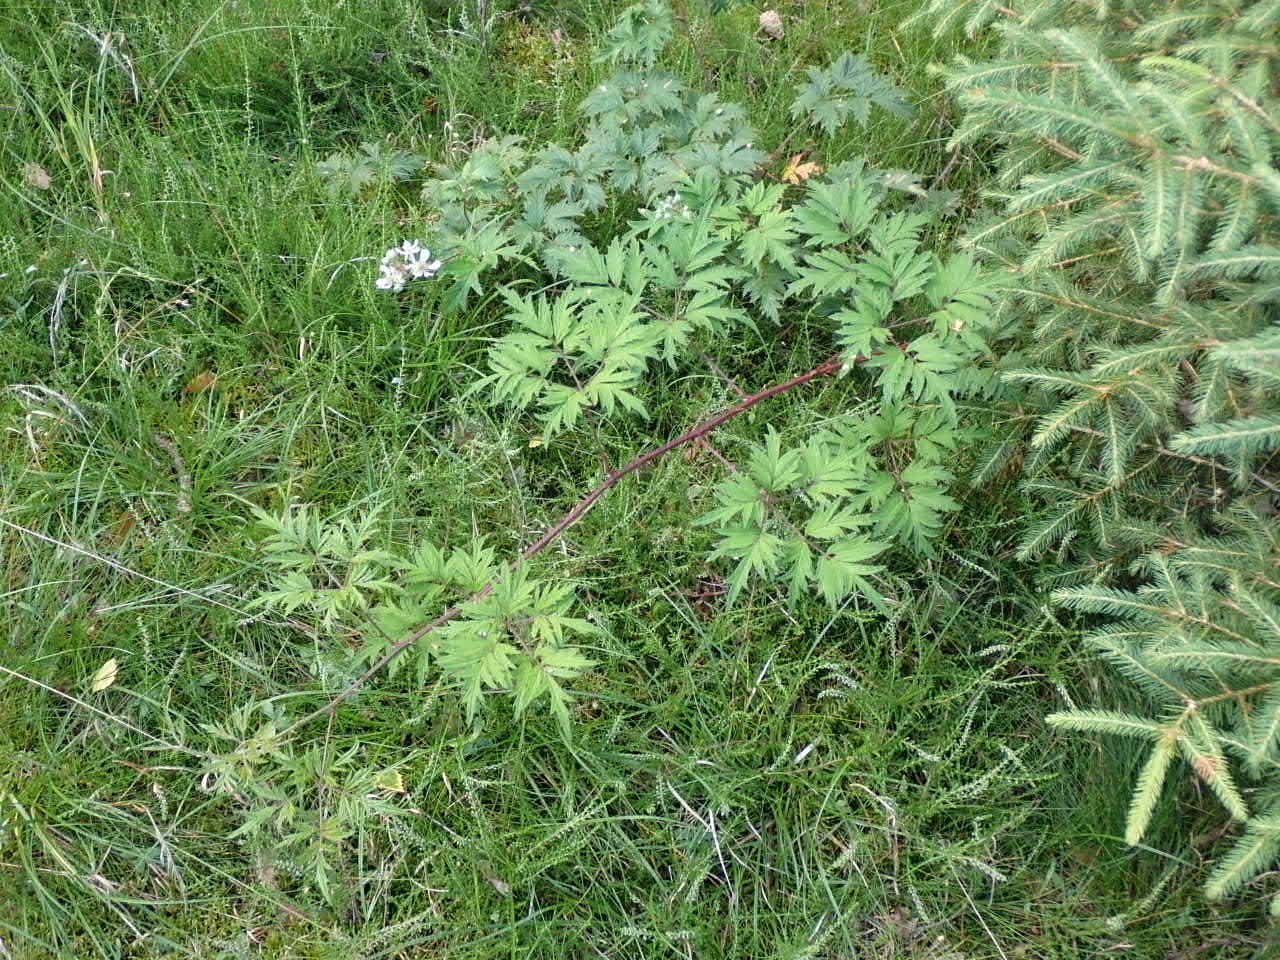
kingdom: Plantae
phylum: Tracheophyta
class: Magnoliopsida
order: Rosales
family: Rosaceae
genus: Rubus
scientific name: Rubus laciniatus
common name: Fliget brombær
